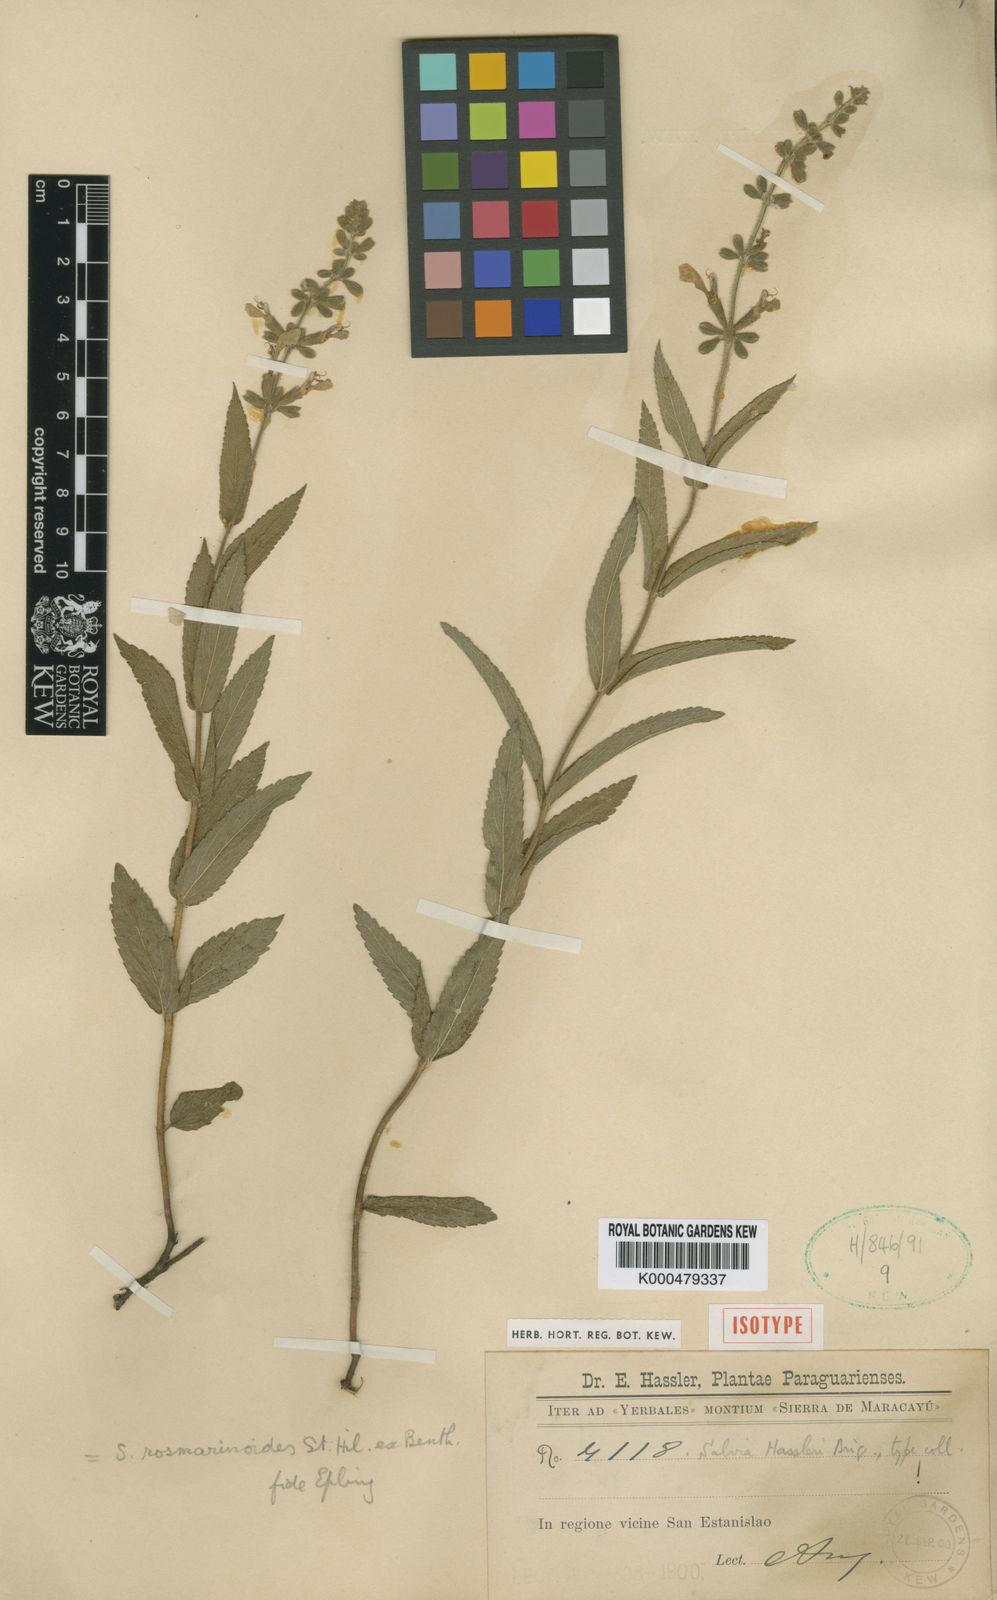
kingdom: Plantae
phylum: Tracheophyta
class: Magnoliopsida
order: Lamiales
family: Lamiaceae
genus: Salvia
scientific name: Salvia nervosa
